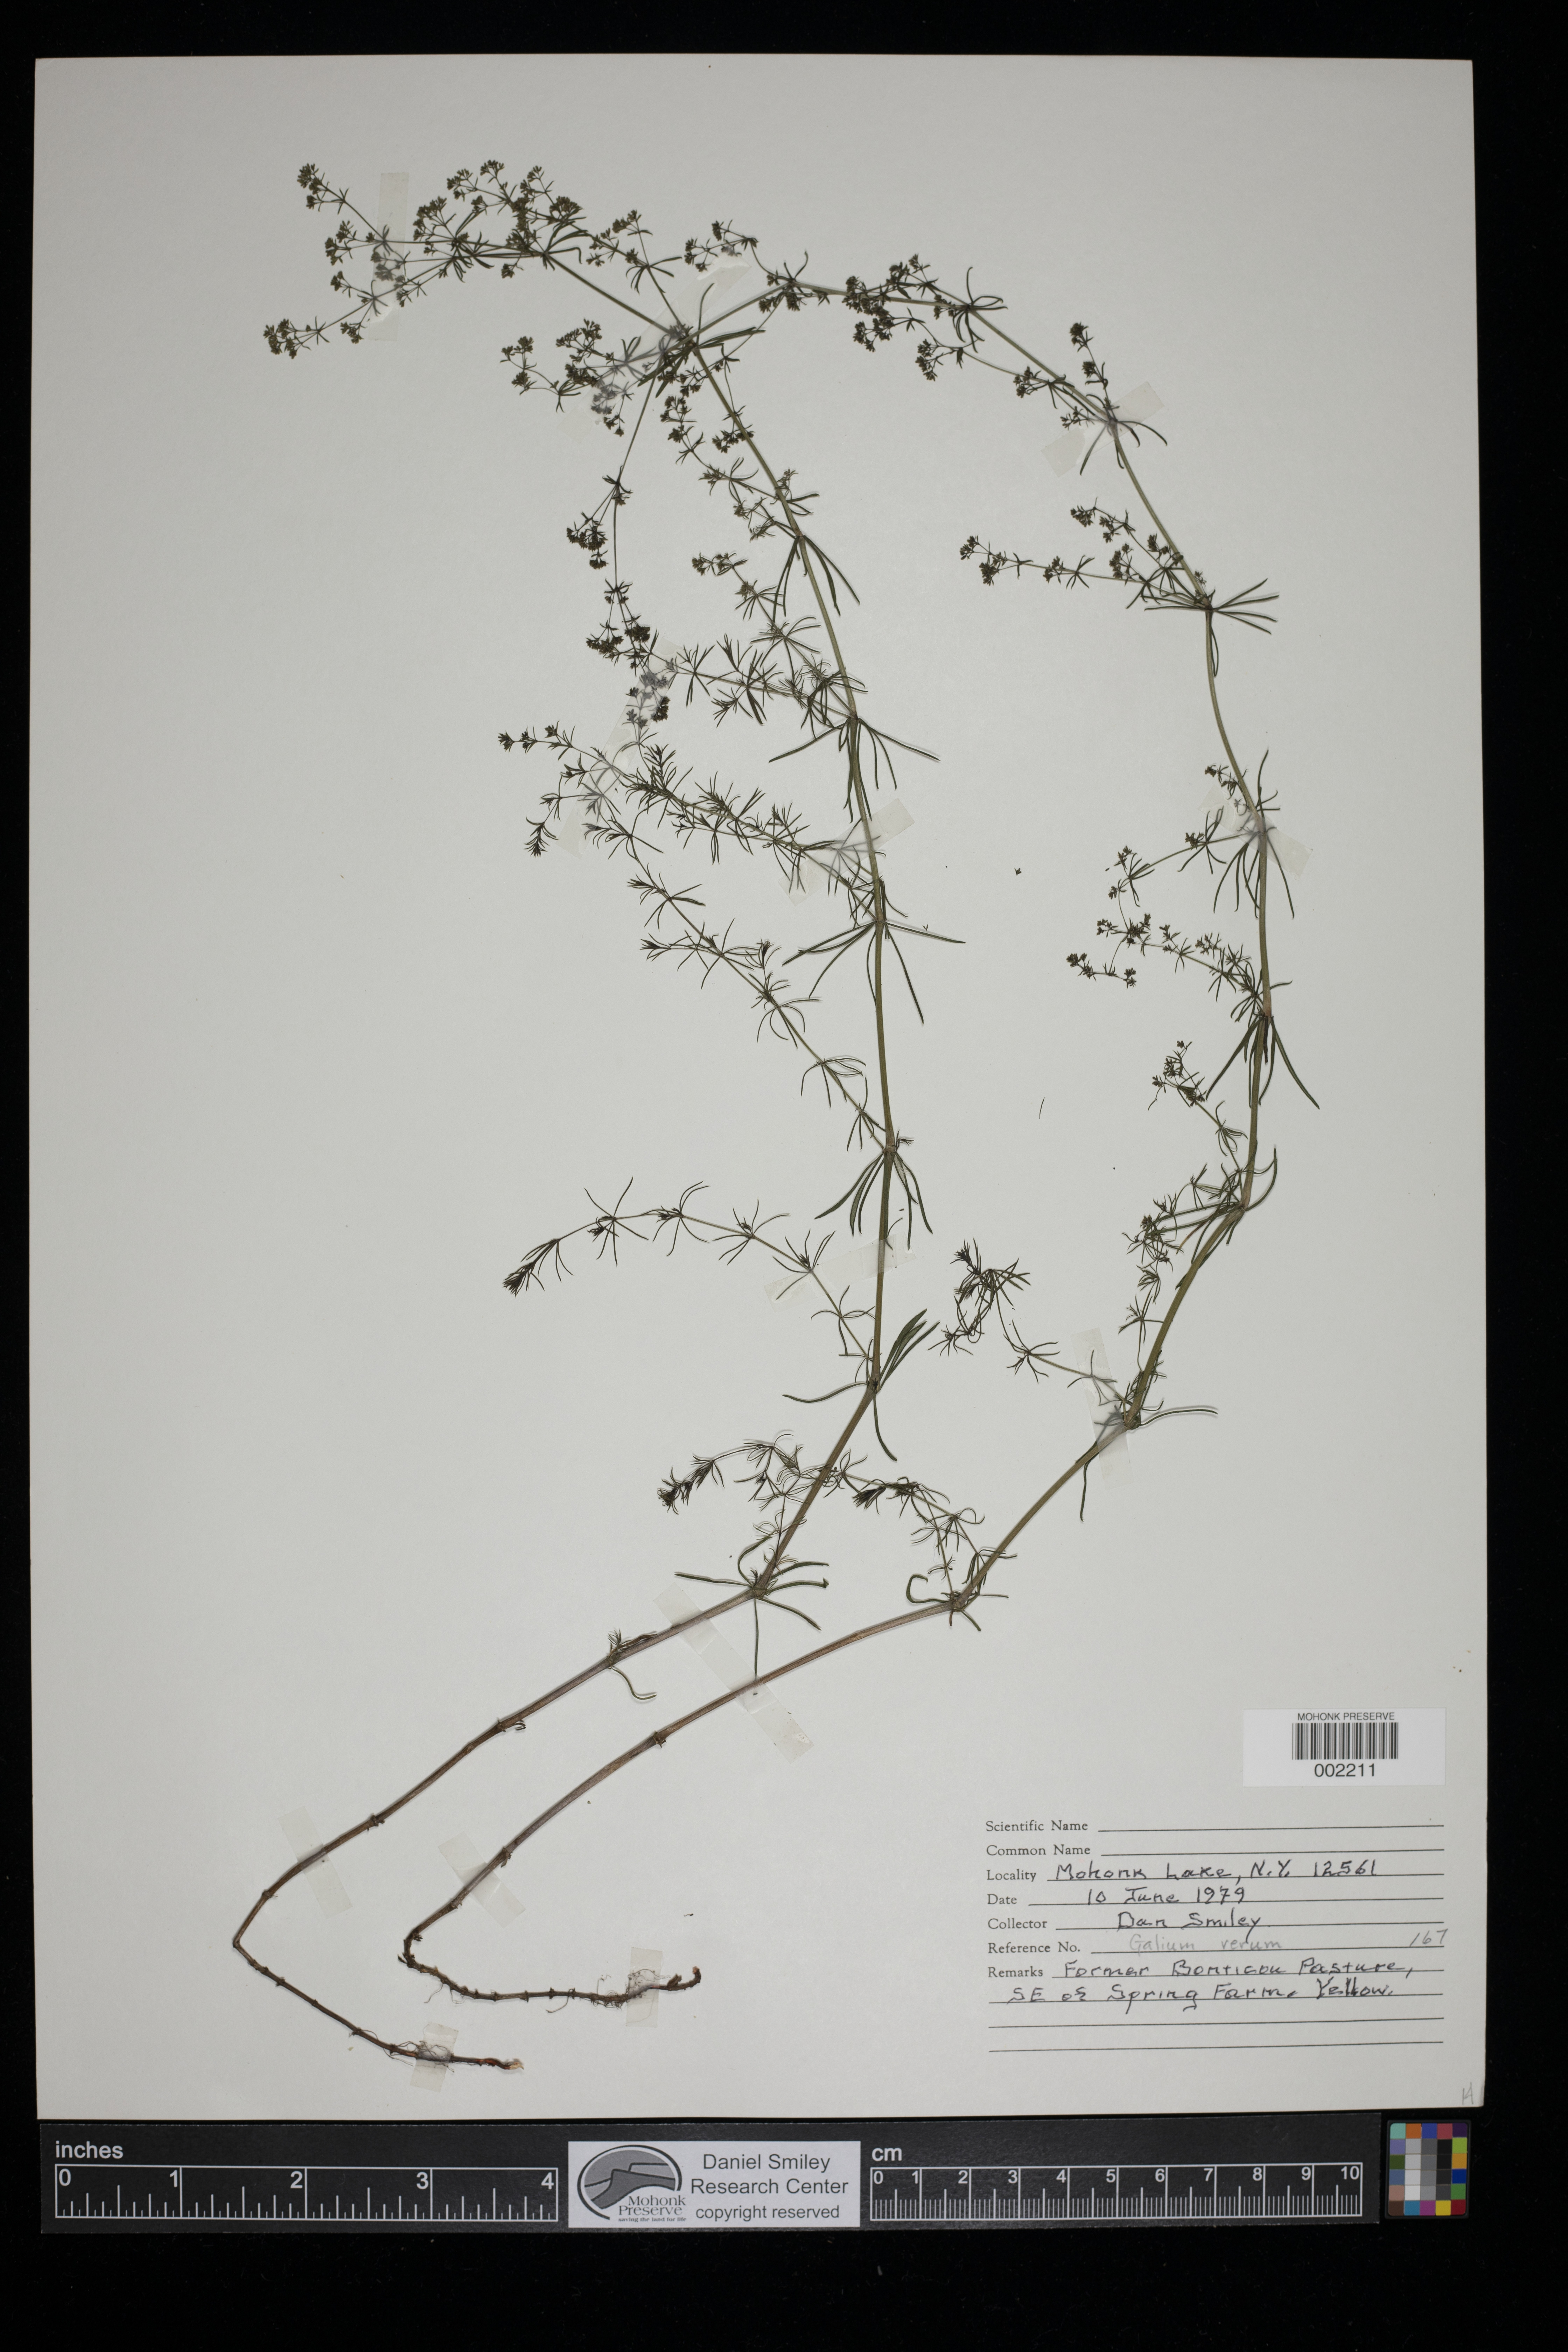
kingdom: Plantae
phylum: Tracheophyta
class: Magnoliopsida
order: Gentianales
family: Rubiaceae
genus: Galium
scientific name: Galium verum
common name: Lady's bedstraw
